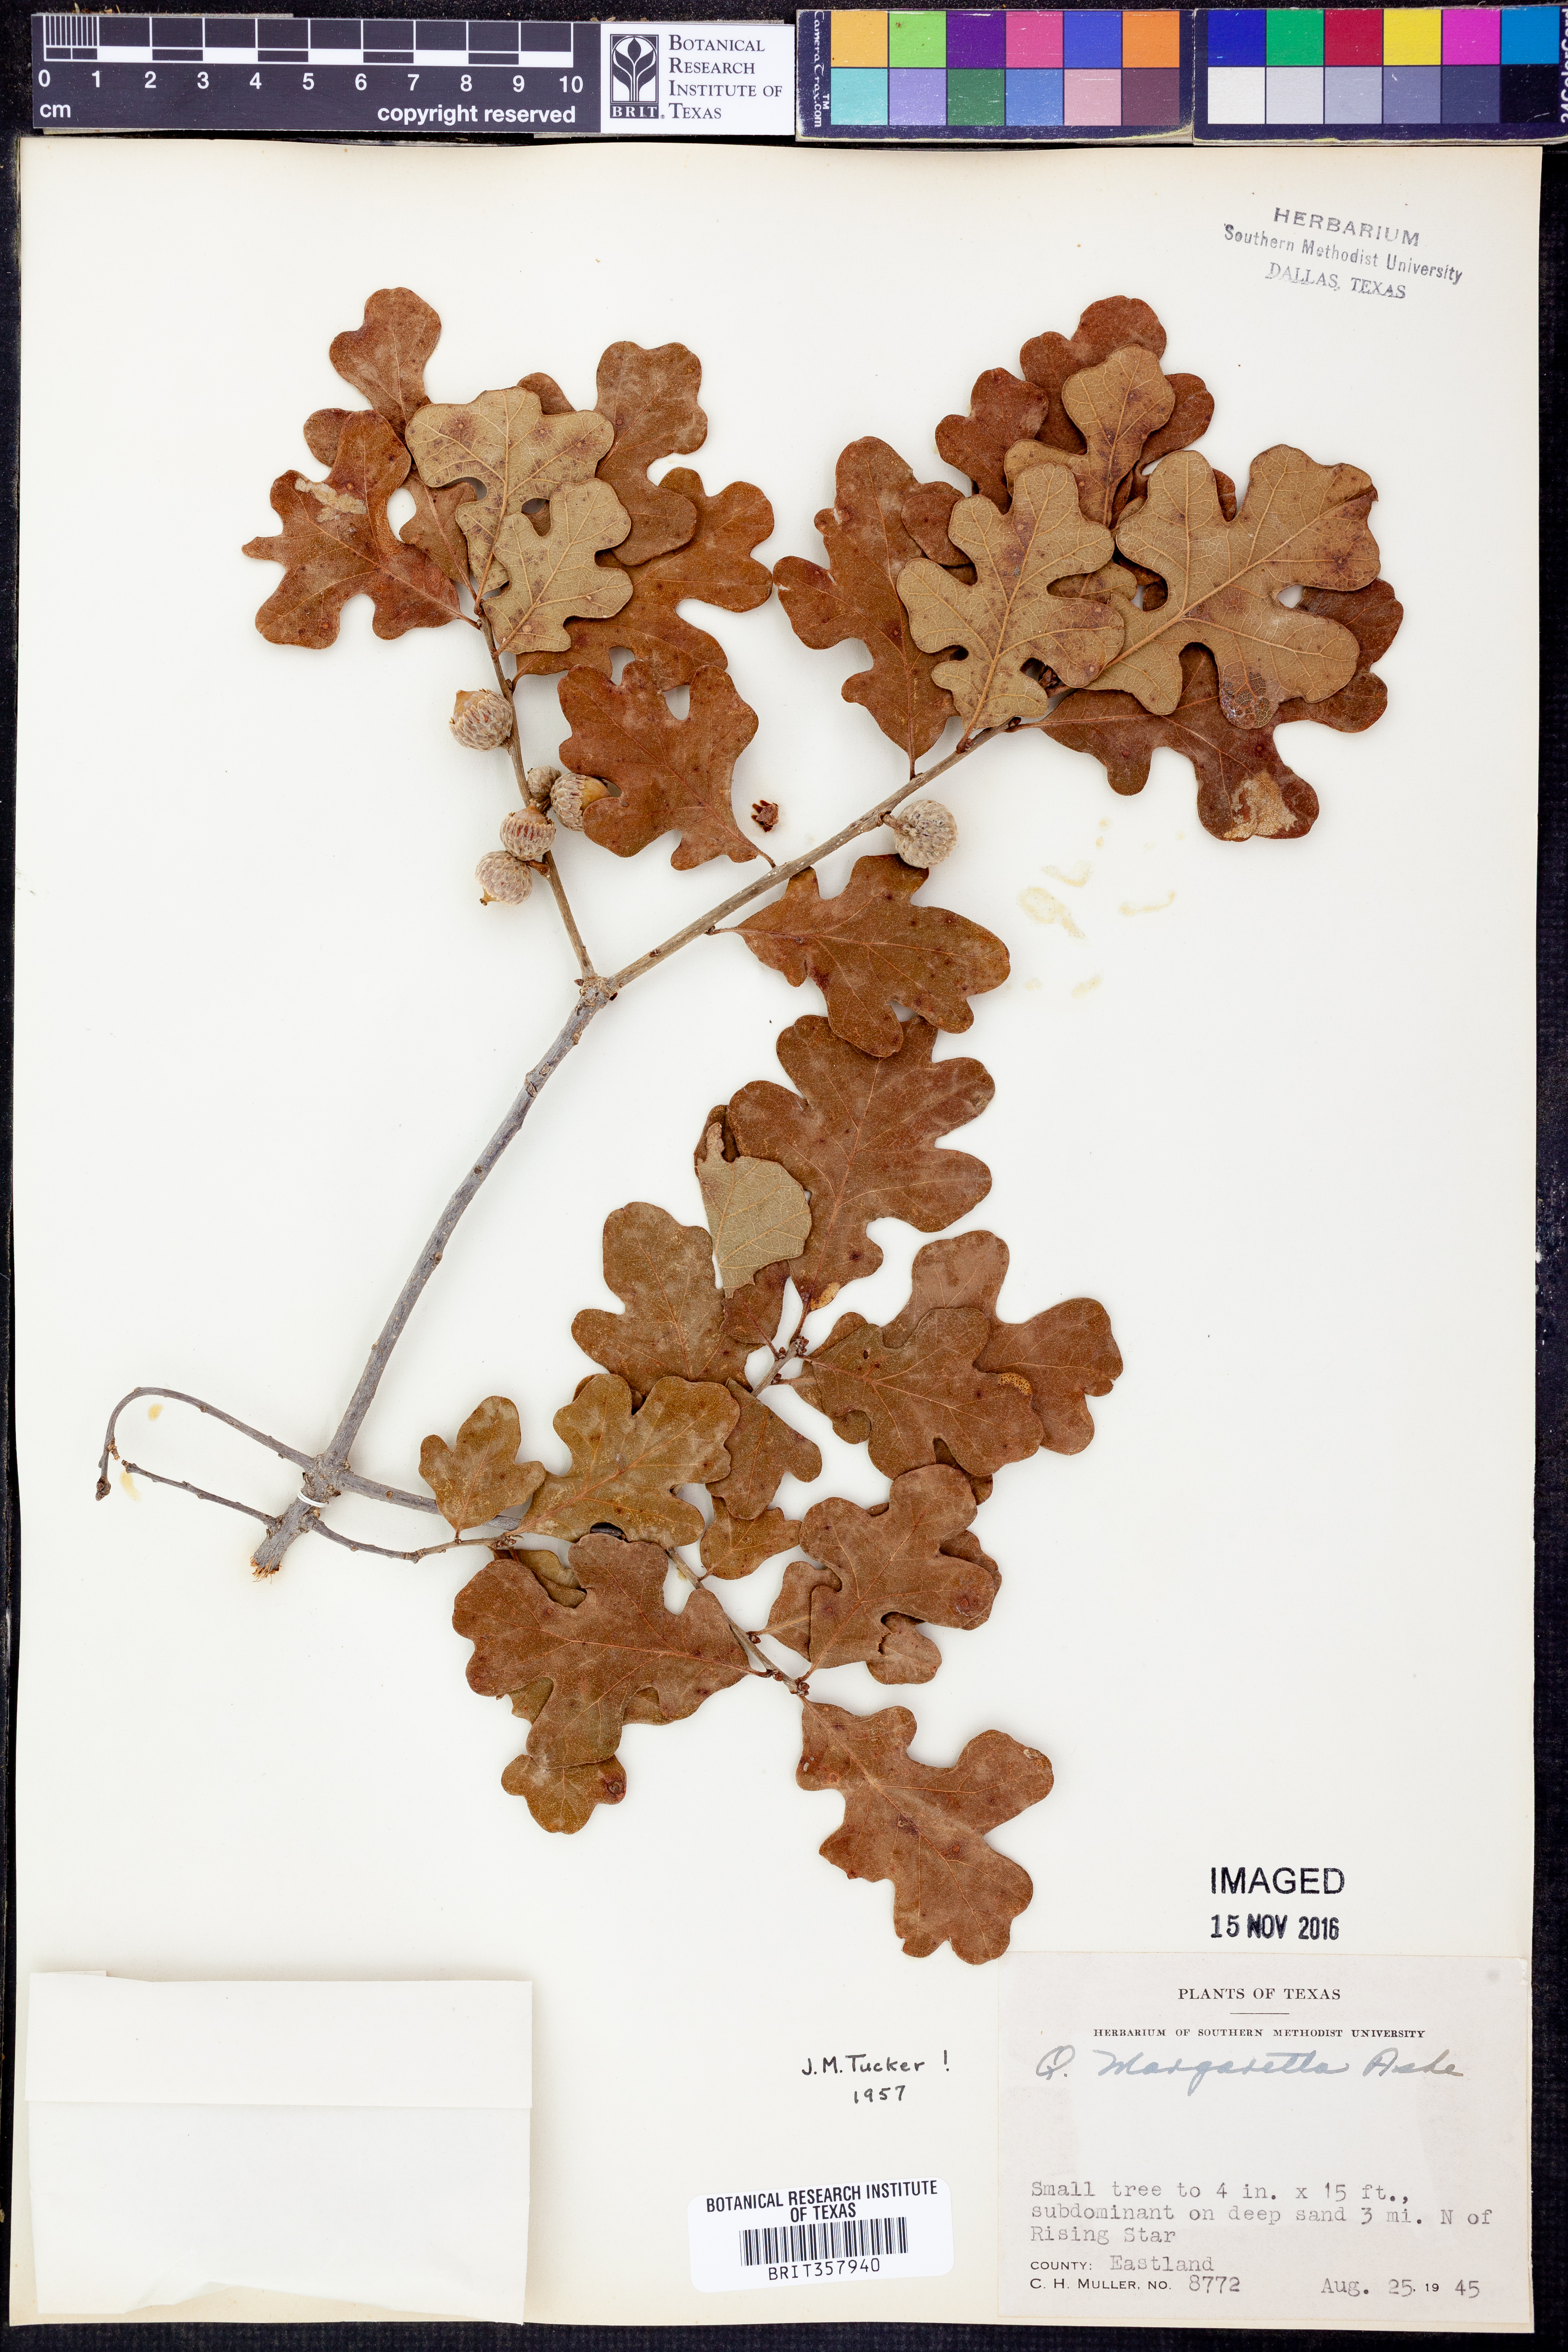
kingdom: Plantae
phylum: Tracheophyta
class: Magnoliopsida
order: Fagales
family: Fagaceae
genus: Quercus
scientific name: Quercus margaretta
